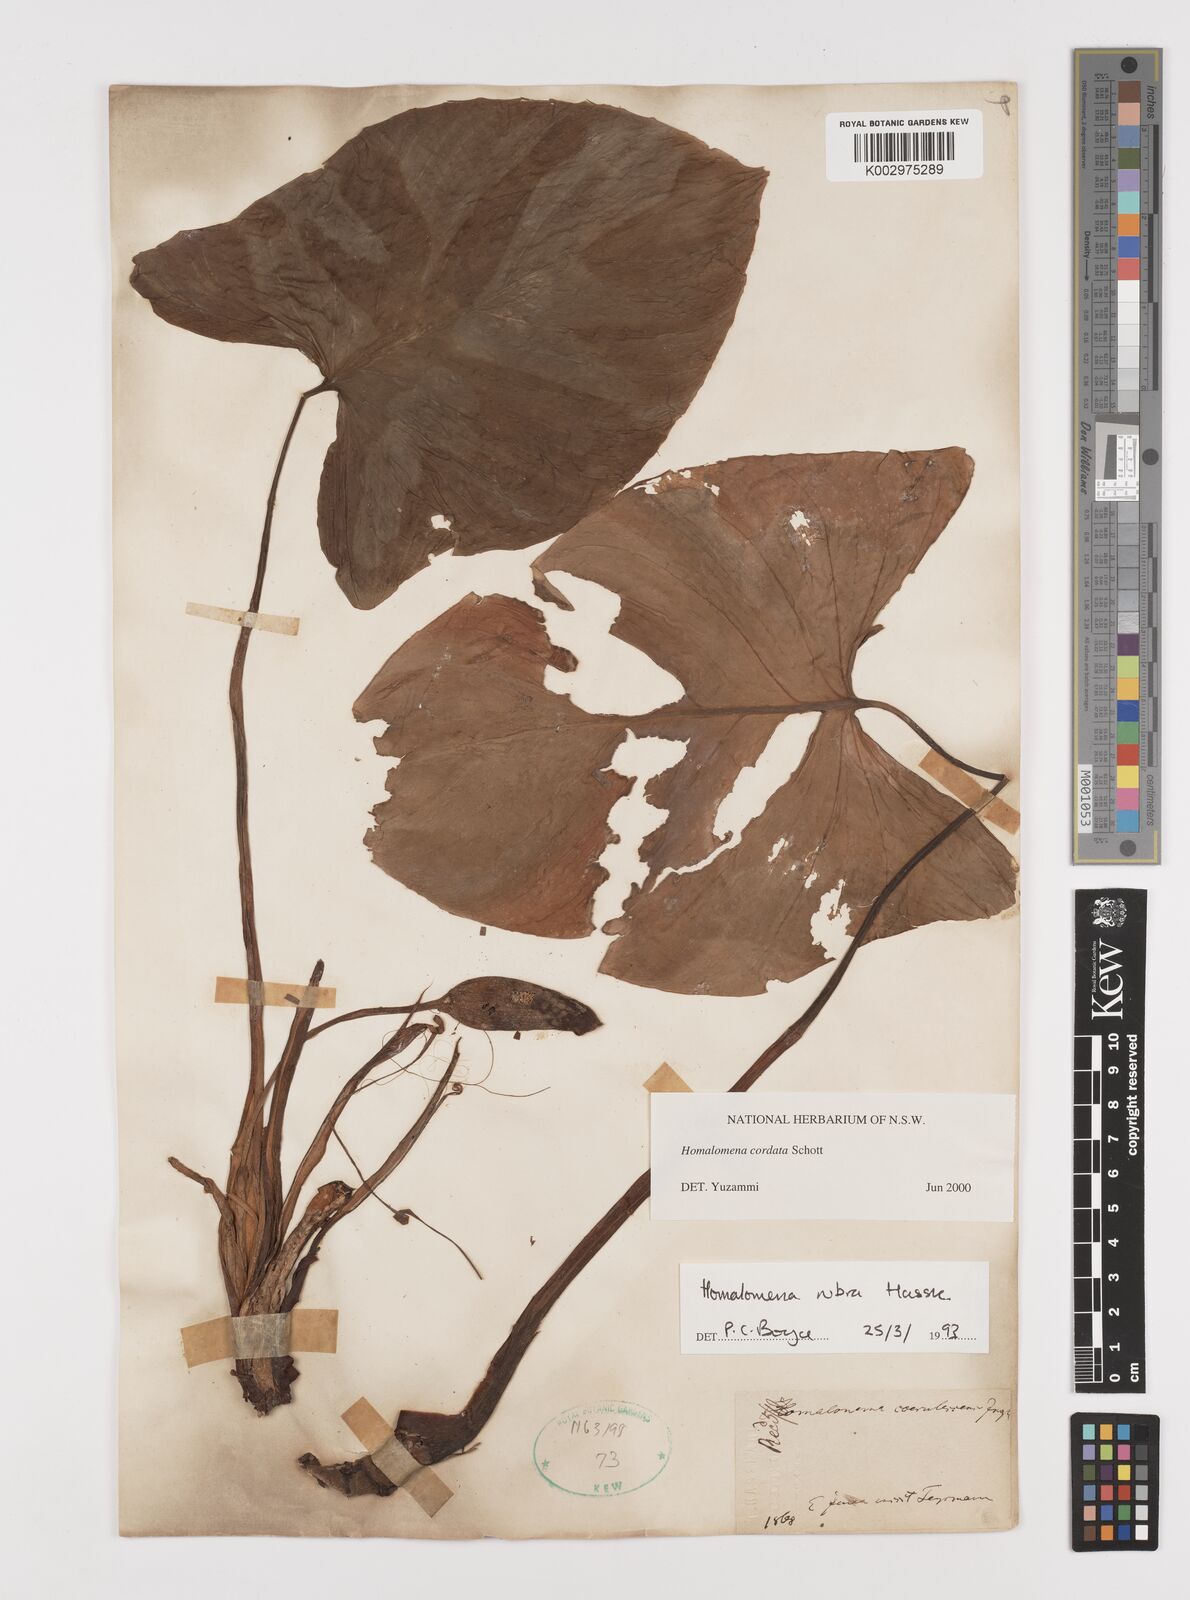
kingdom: Plantae
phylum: Tracheophyta
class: Liliopsida
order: Alismatales
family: Araceae
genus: Homalomena
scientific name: Homalomena cordata
